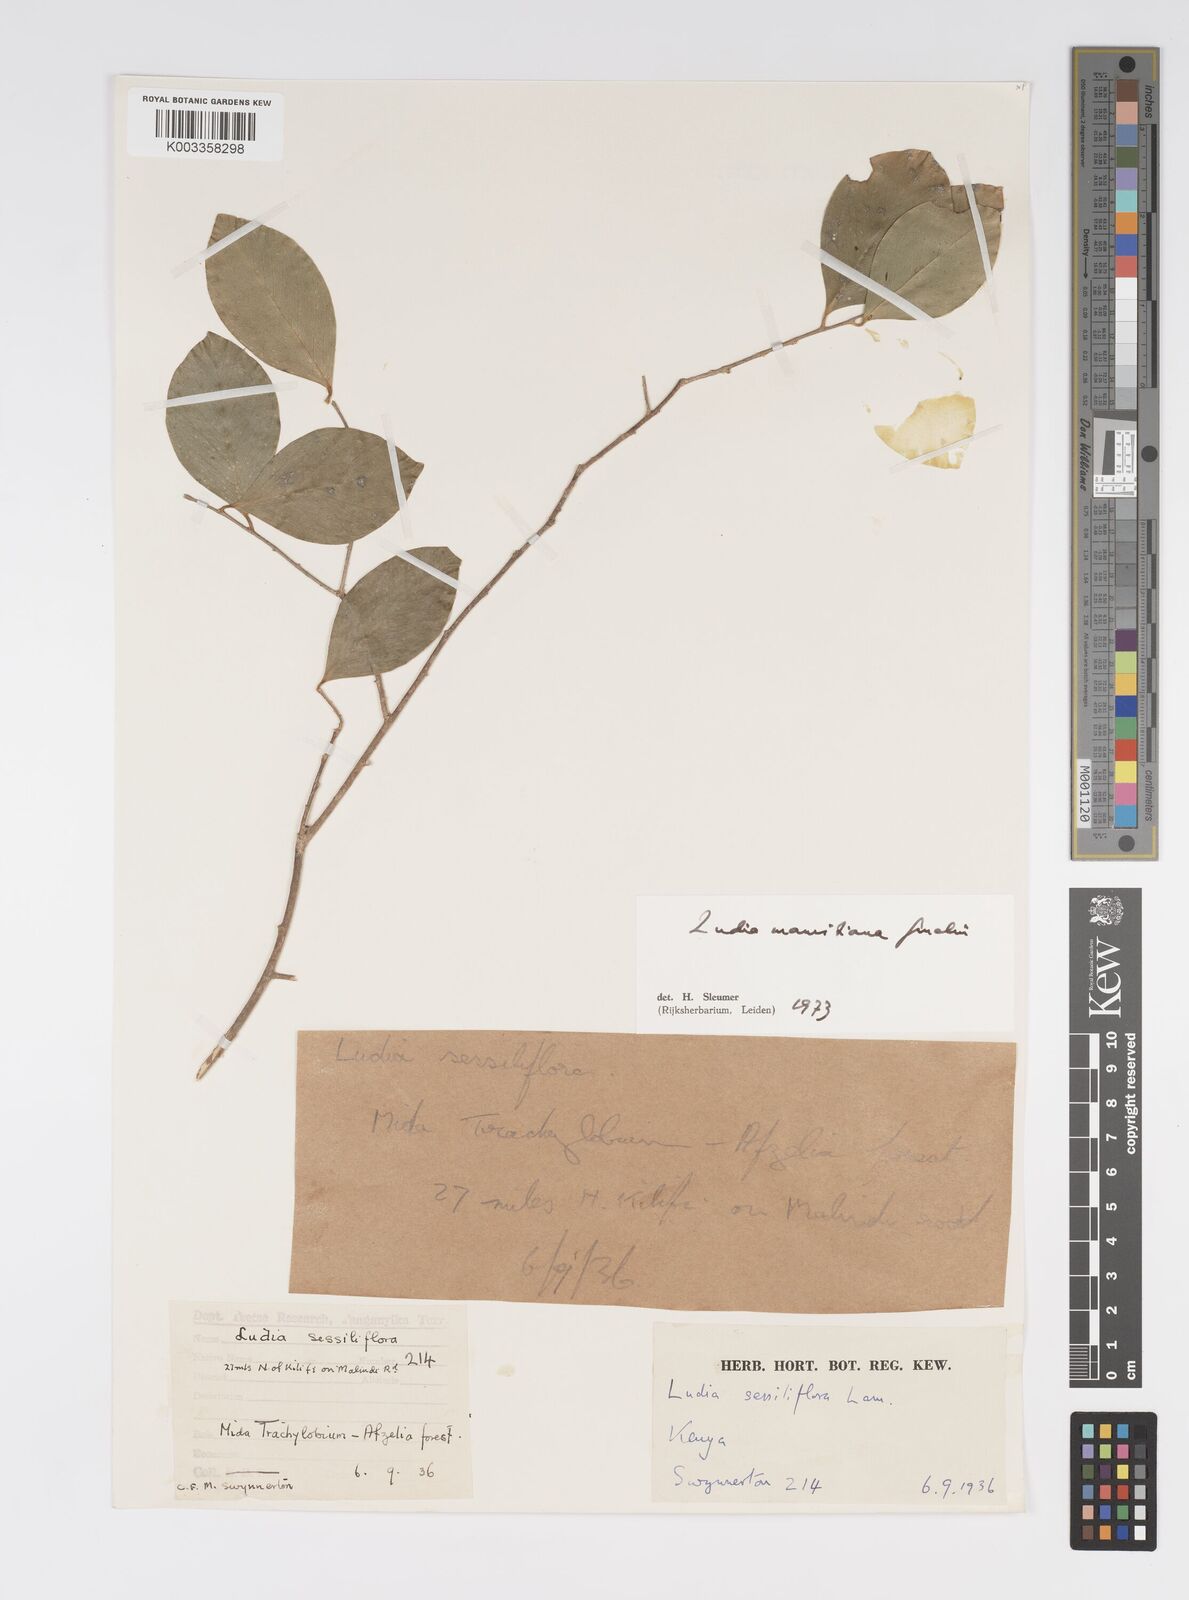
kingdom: Plantae
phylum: Tracheophyta
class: Magnoliopsida
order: Malpighiales
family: Salicaceae
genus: Ludia
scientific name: Ludia mauritiana
